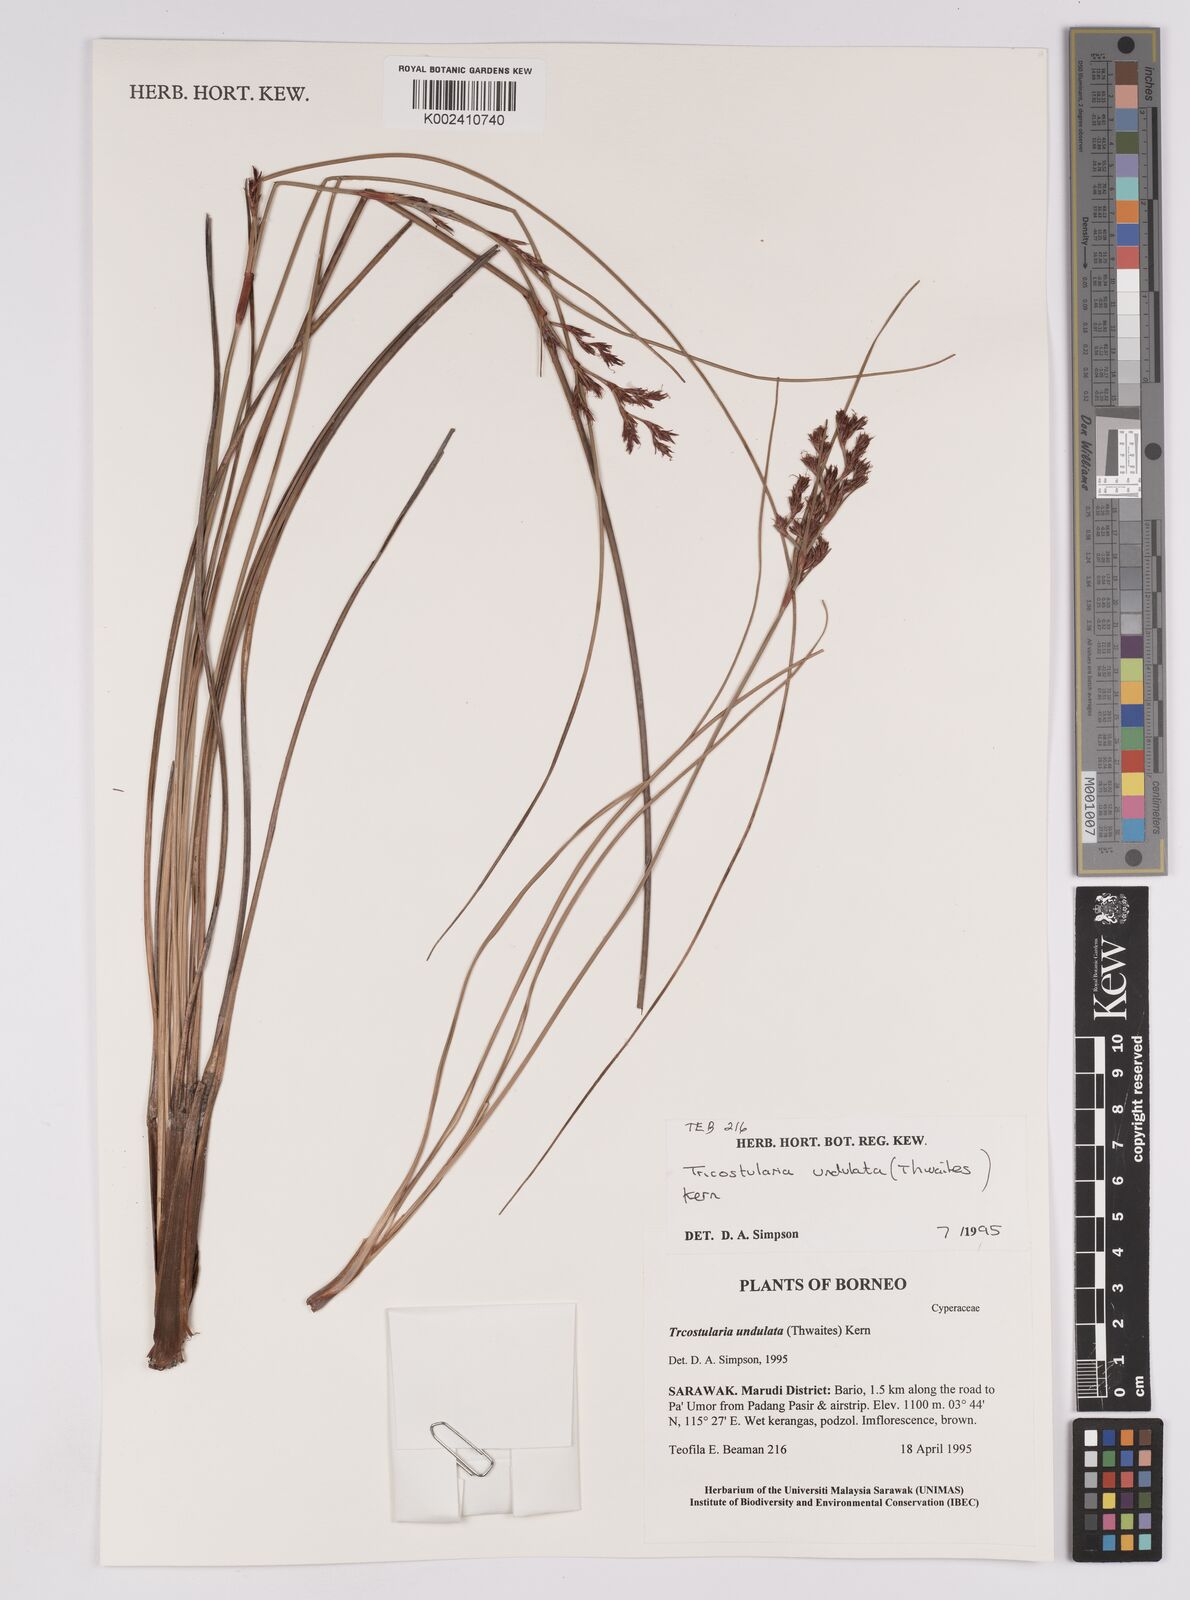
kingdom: Plantae
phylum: Tracheophyta
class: Liliopsida
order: Poales
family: Cyperaceae
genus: Anthelepis
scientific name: Anthelepis undulata
